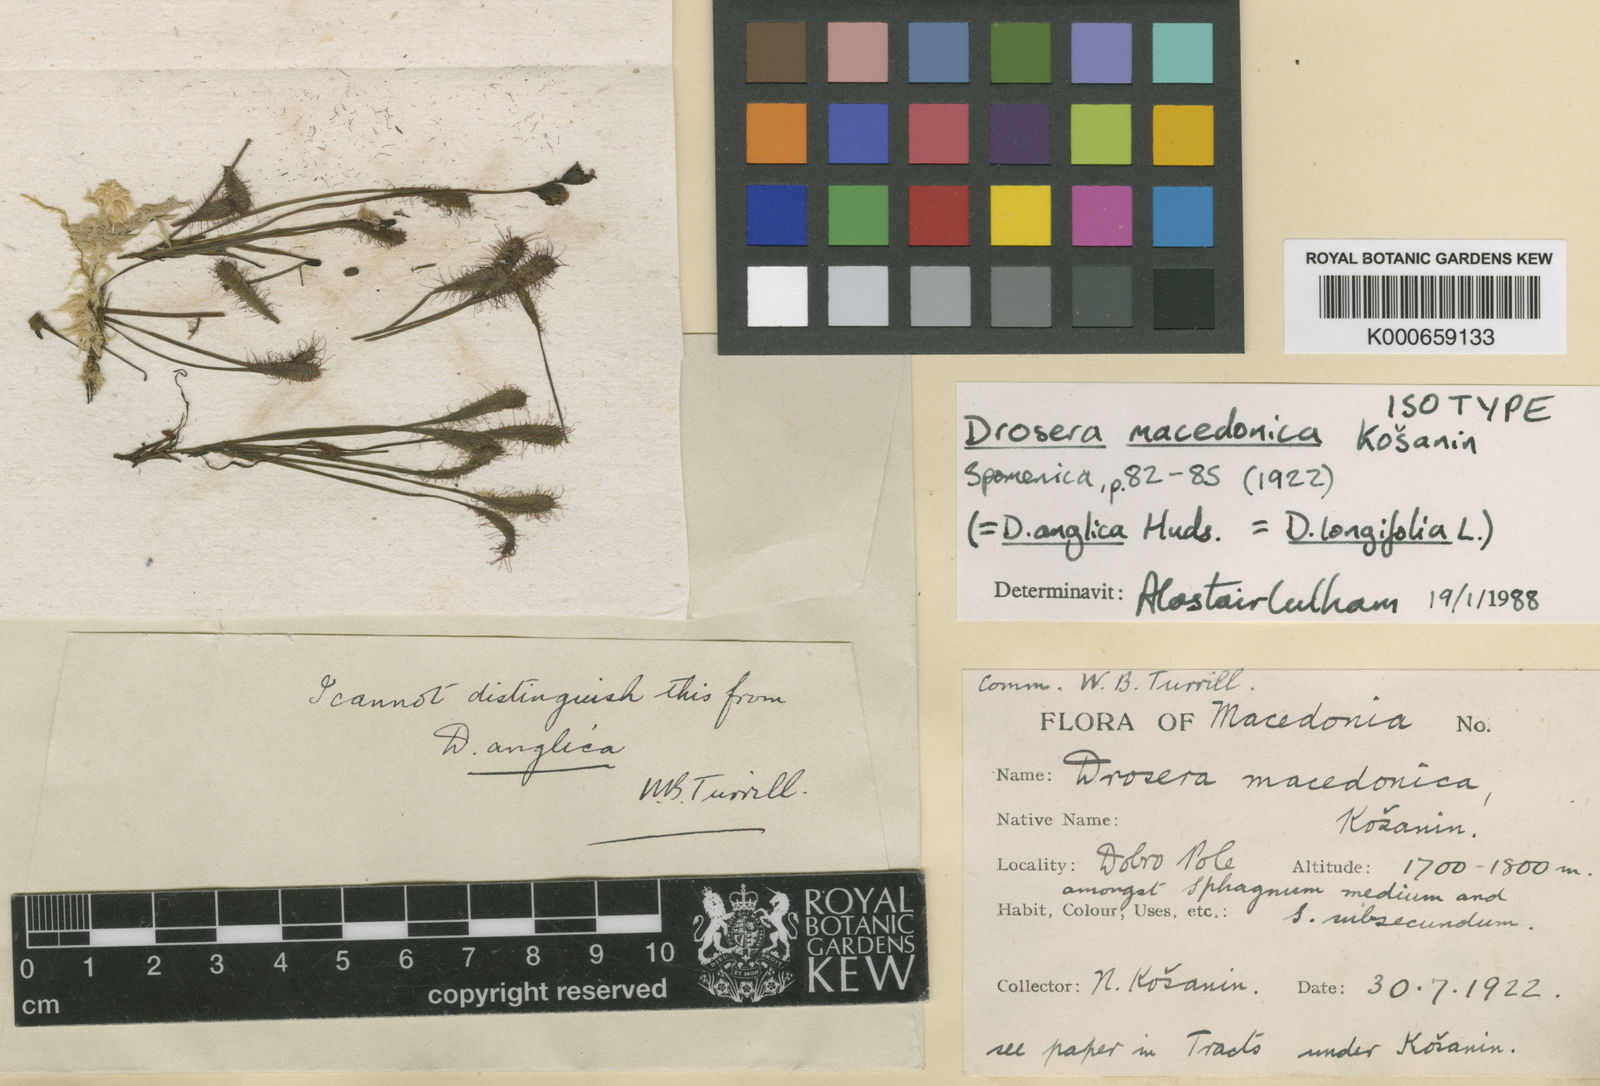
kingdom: Plantae
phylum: Tracheophyta
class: Magnoliopsida
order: Caryophyllales
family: Droseraceae
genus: Drosera
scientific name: Drosera anglica
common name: Great sundew
